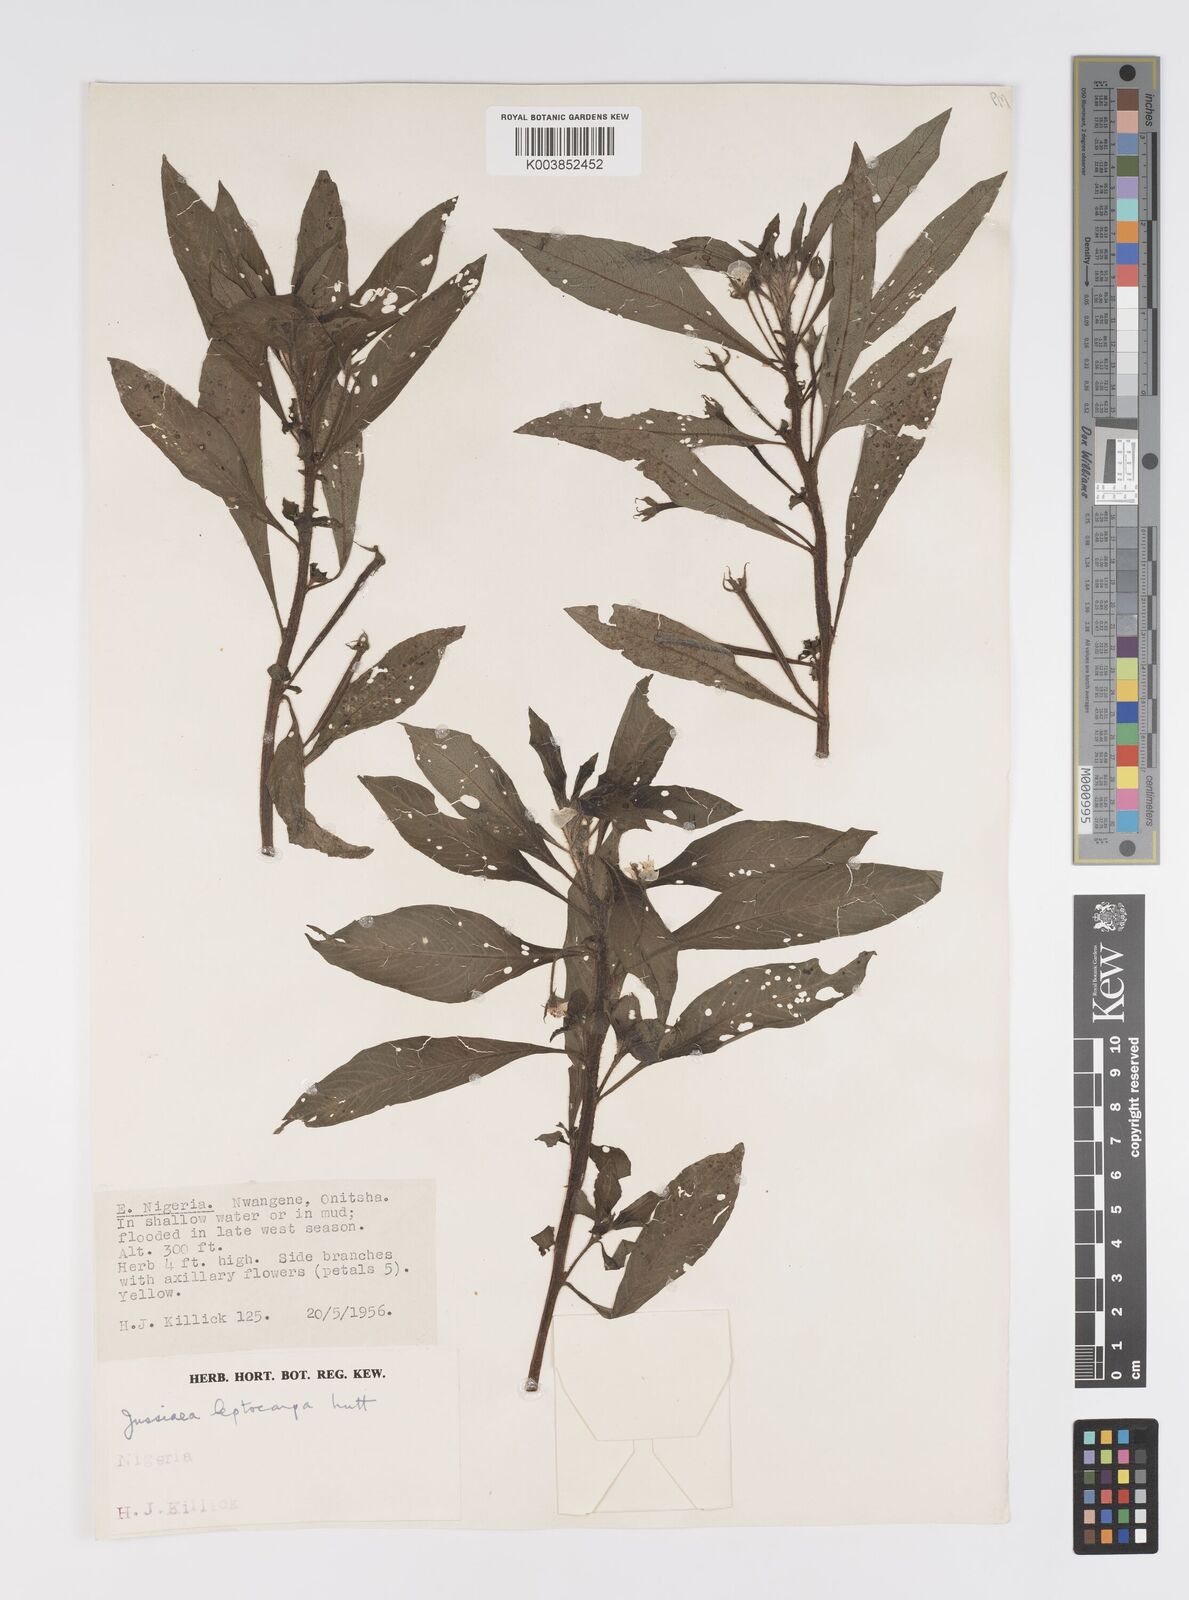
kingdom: Plantae
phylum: Tracheophyta
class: Magnoliopsida
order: Myrtales
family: Onagraceae
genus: Ludwigia
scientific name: Ludwigia leptocarpa
